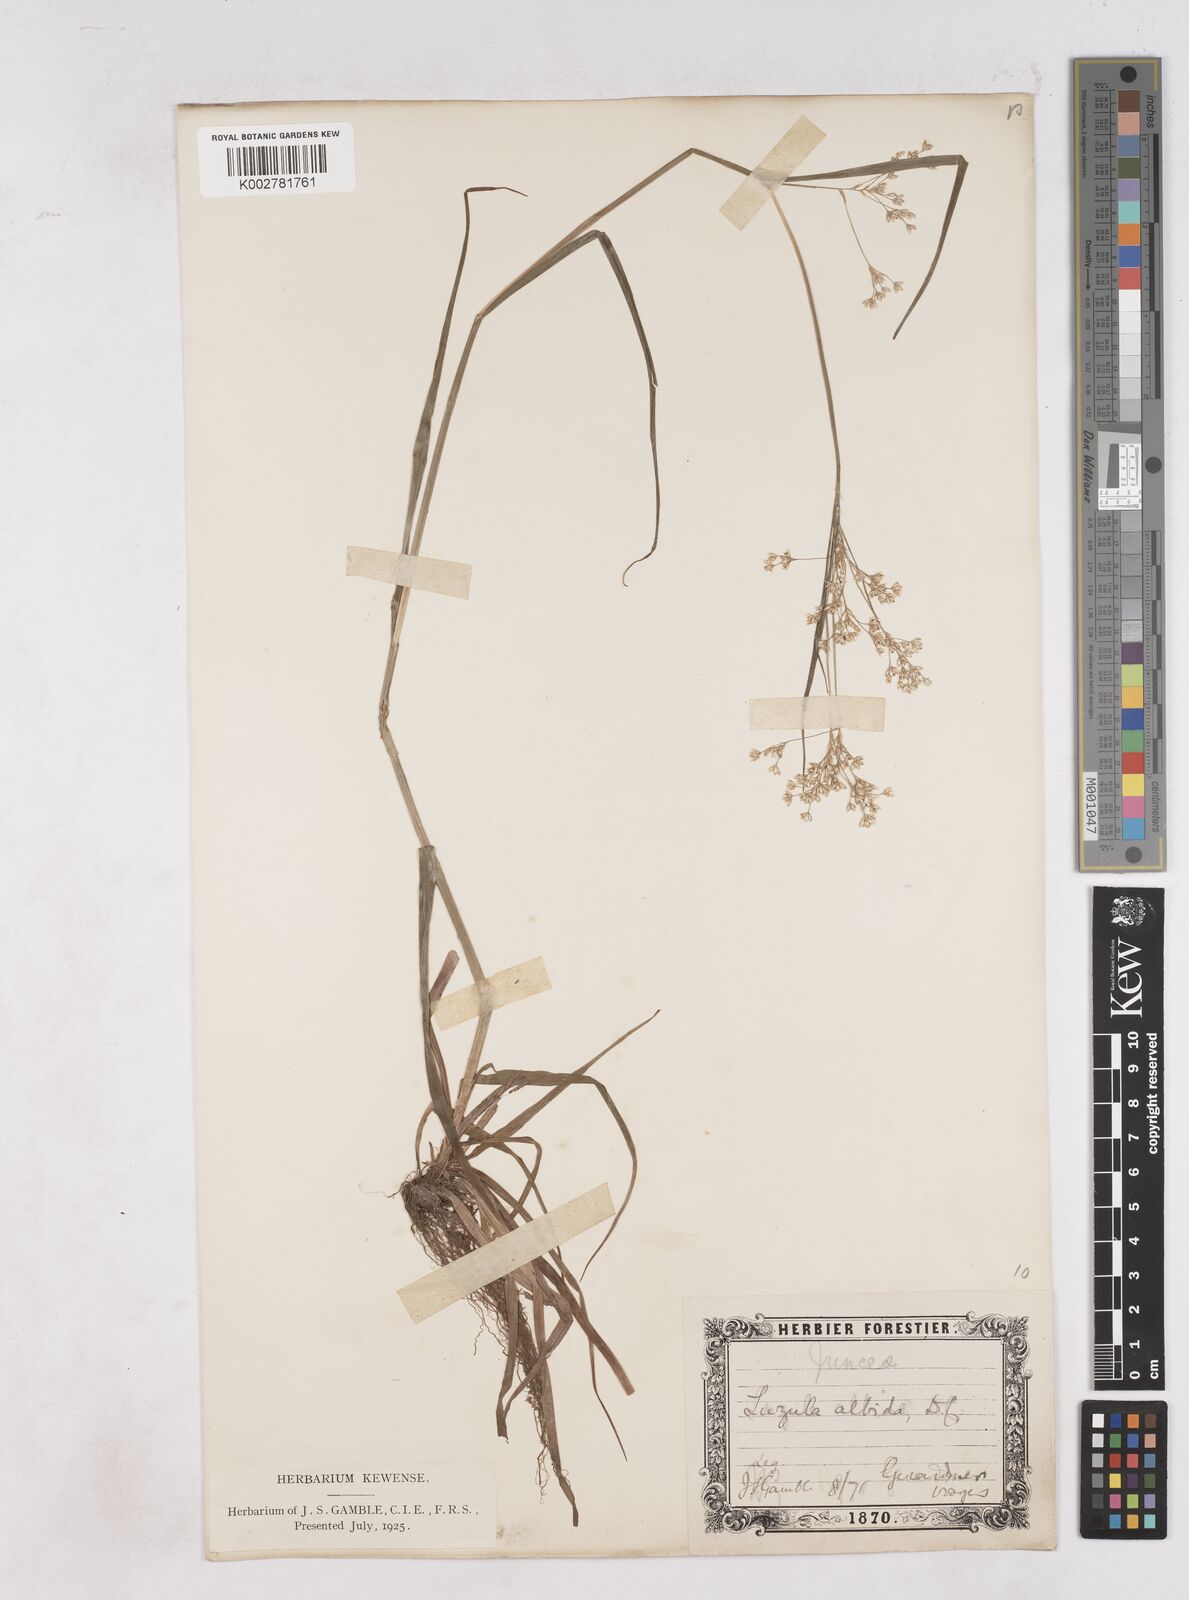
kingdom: Plantae
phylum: Tracheophyta
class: Liliopsida
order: Poales
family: Juncaceae
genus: Luzula
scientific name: Luzula luzuloides
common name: White wood-rush
